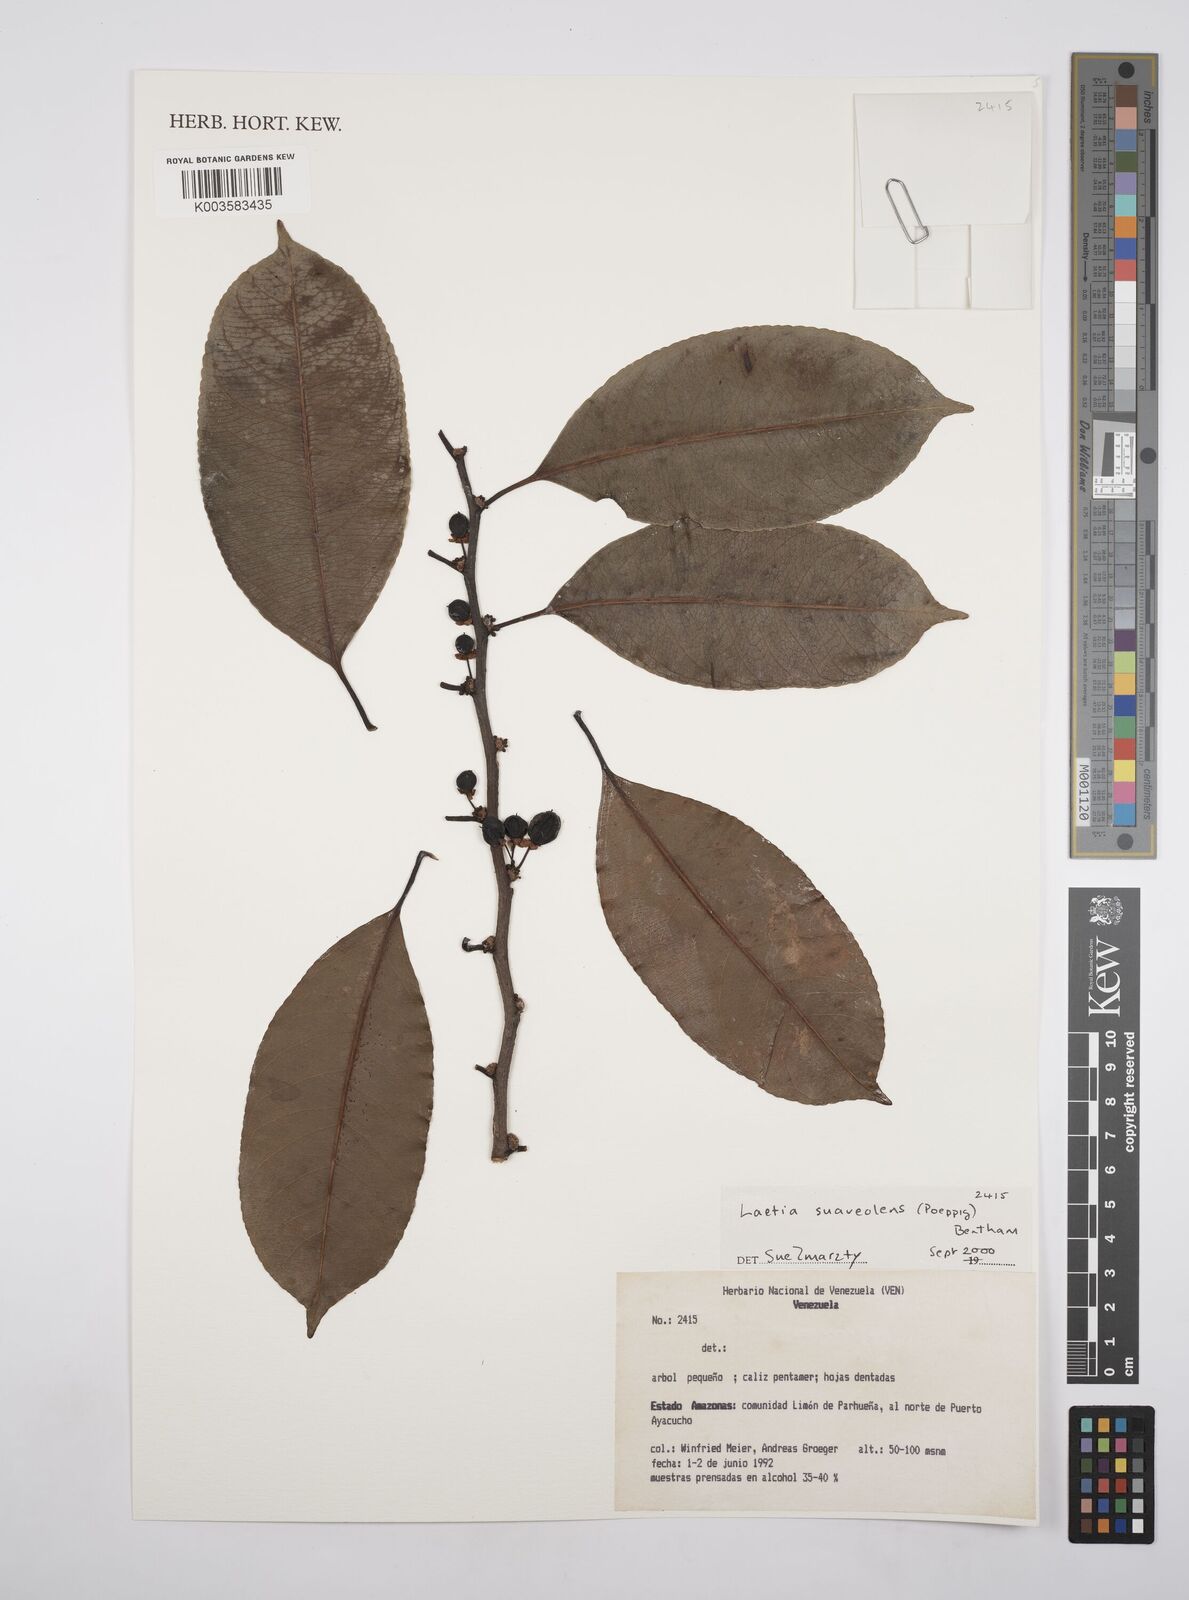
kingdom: Plantae
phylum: Tracheophyta
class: Magnoliopsida
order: Malpighiales
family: Salicaceae
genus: Casearia
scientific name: Casearia suaveolens
